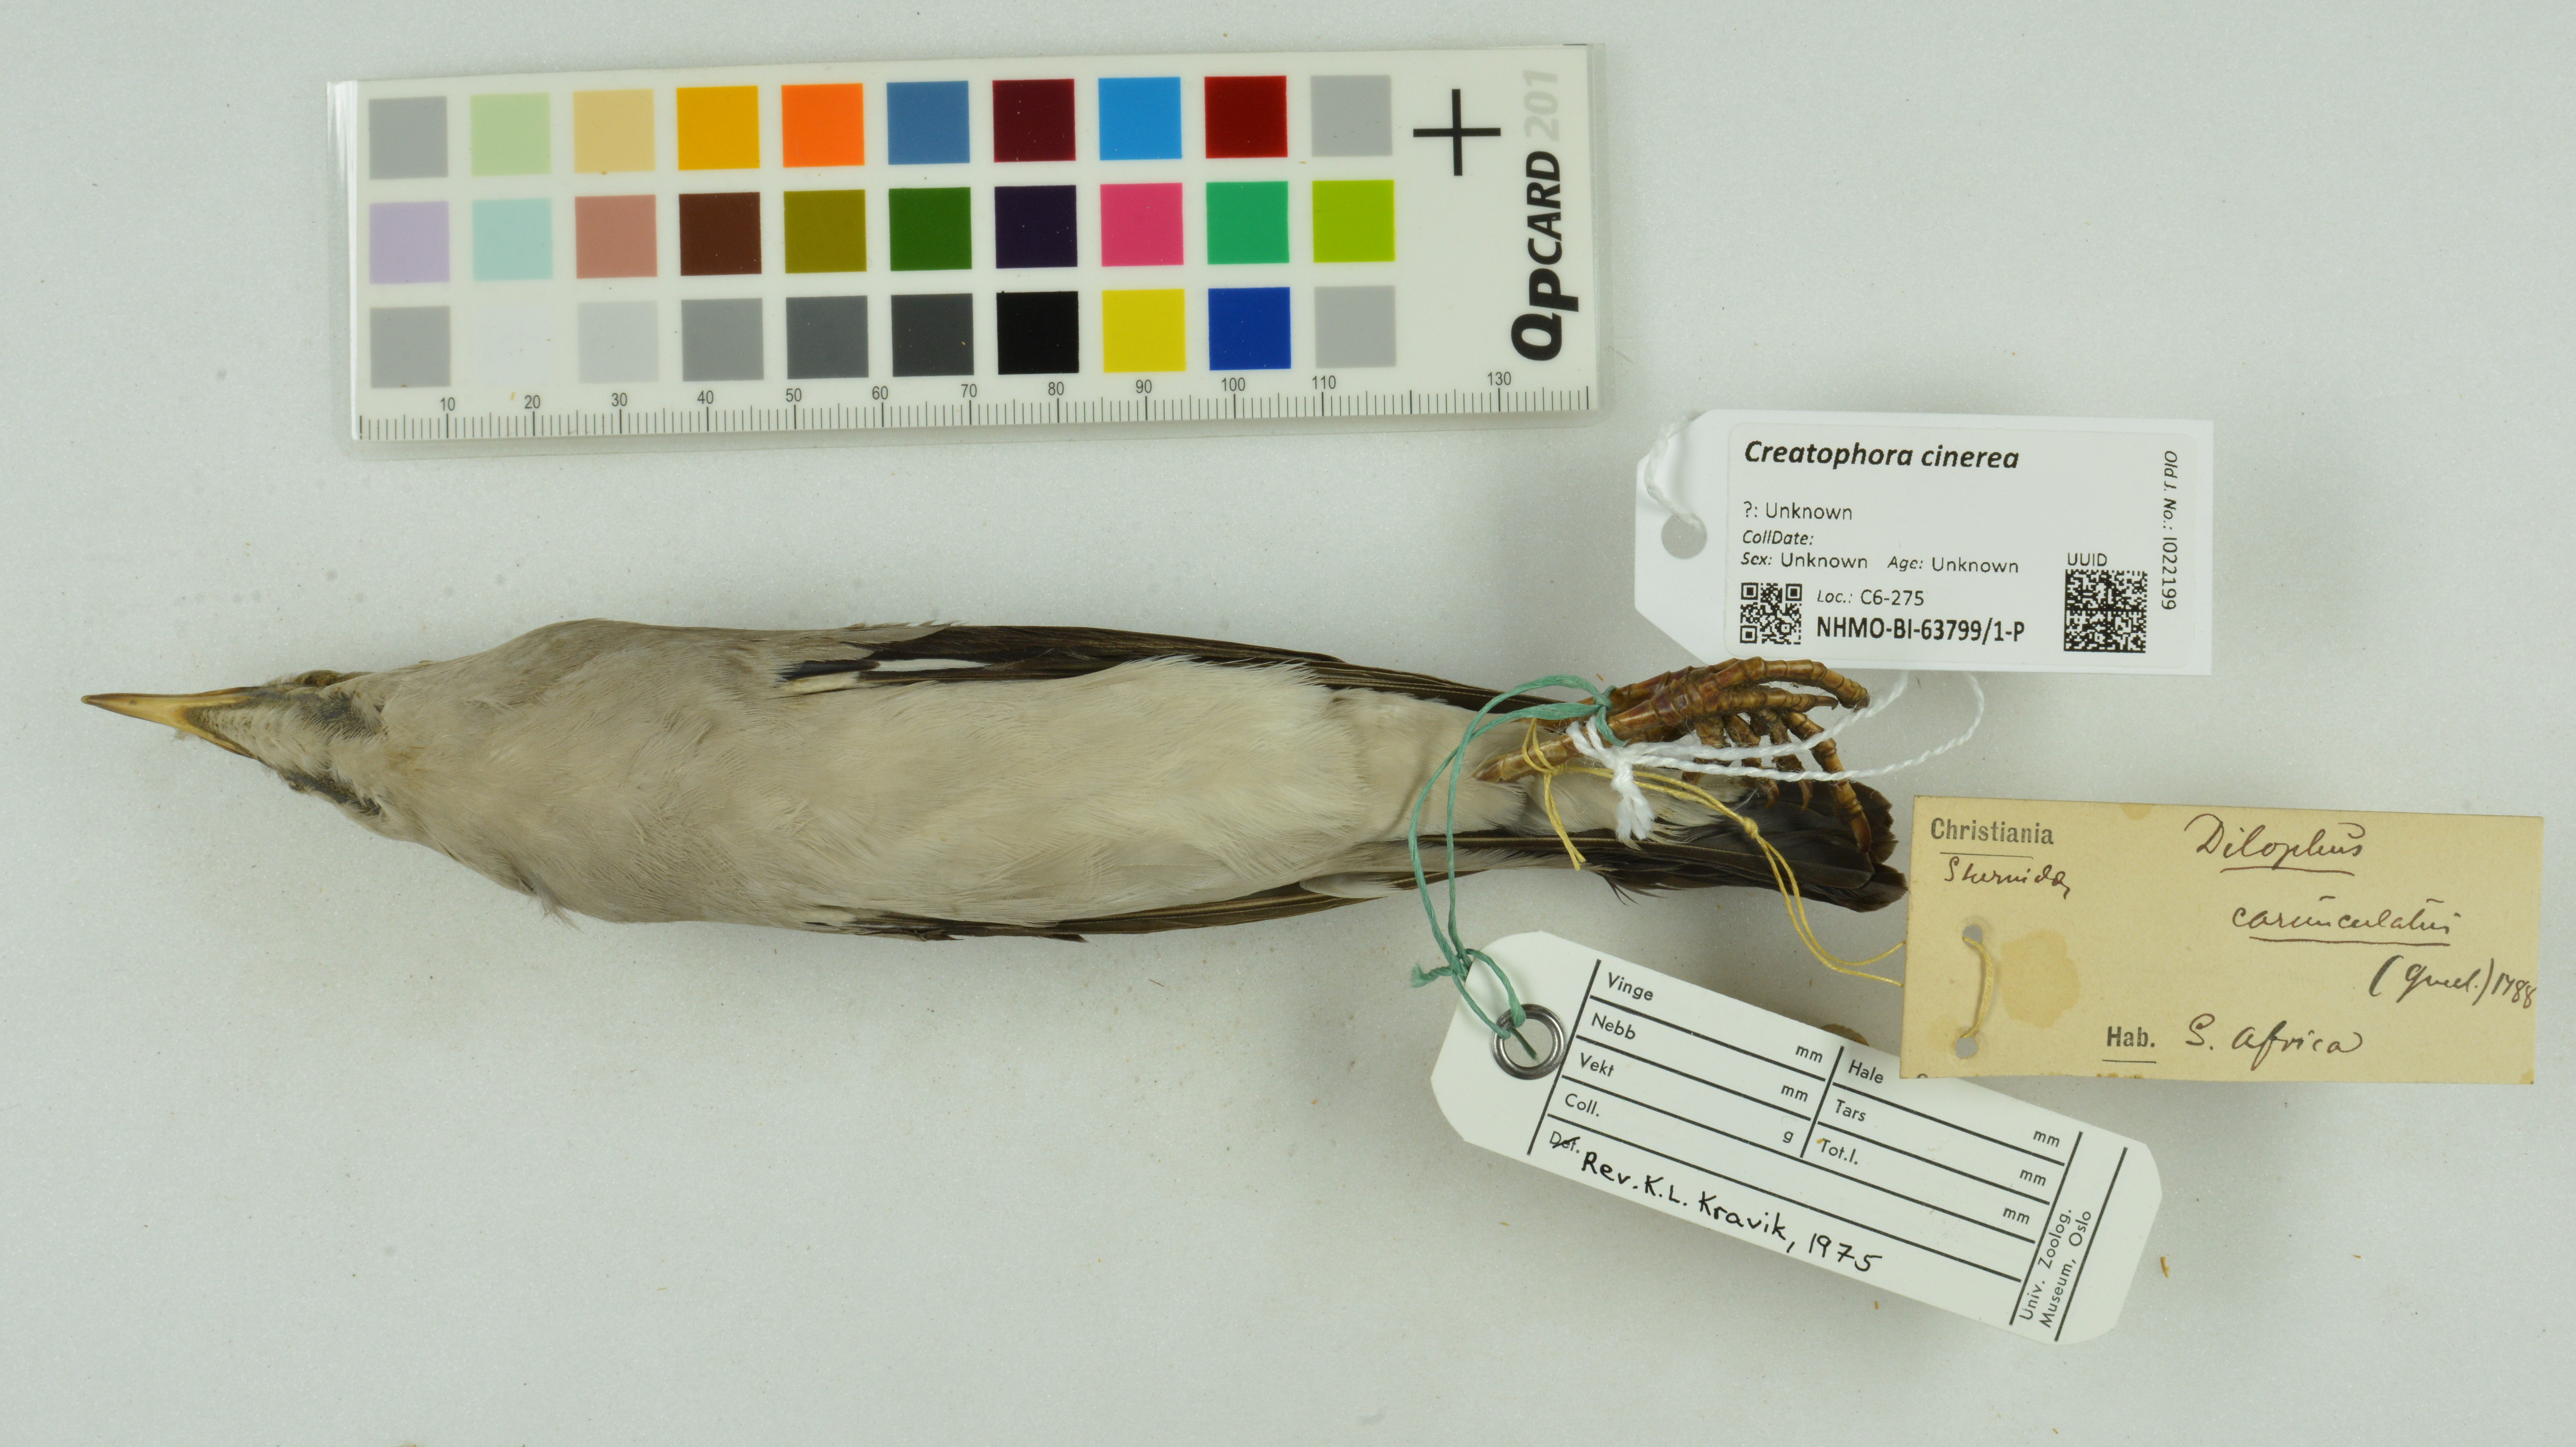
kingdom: Animalia
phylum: Chordata
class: Aves
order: Passeriformes
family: Sturnidae
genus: Creatophora
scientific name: Creatophora cinerea
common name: Wattled starling
